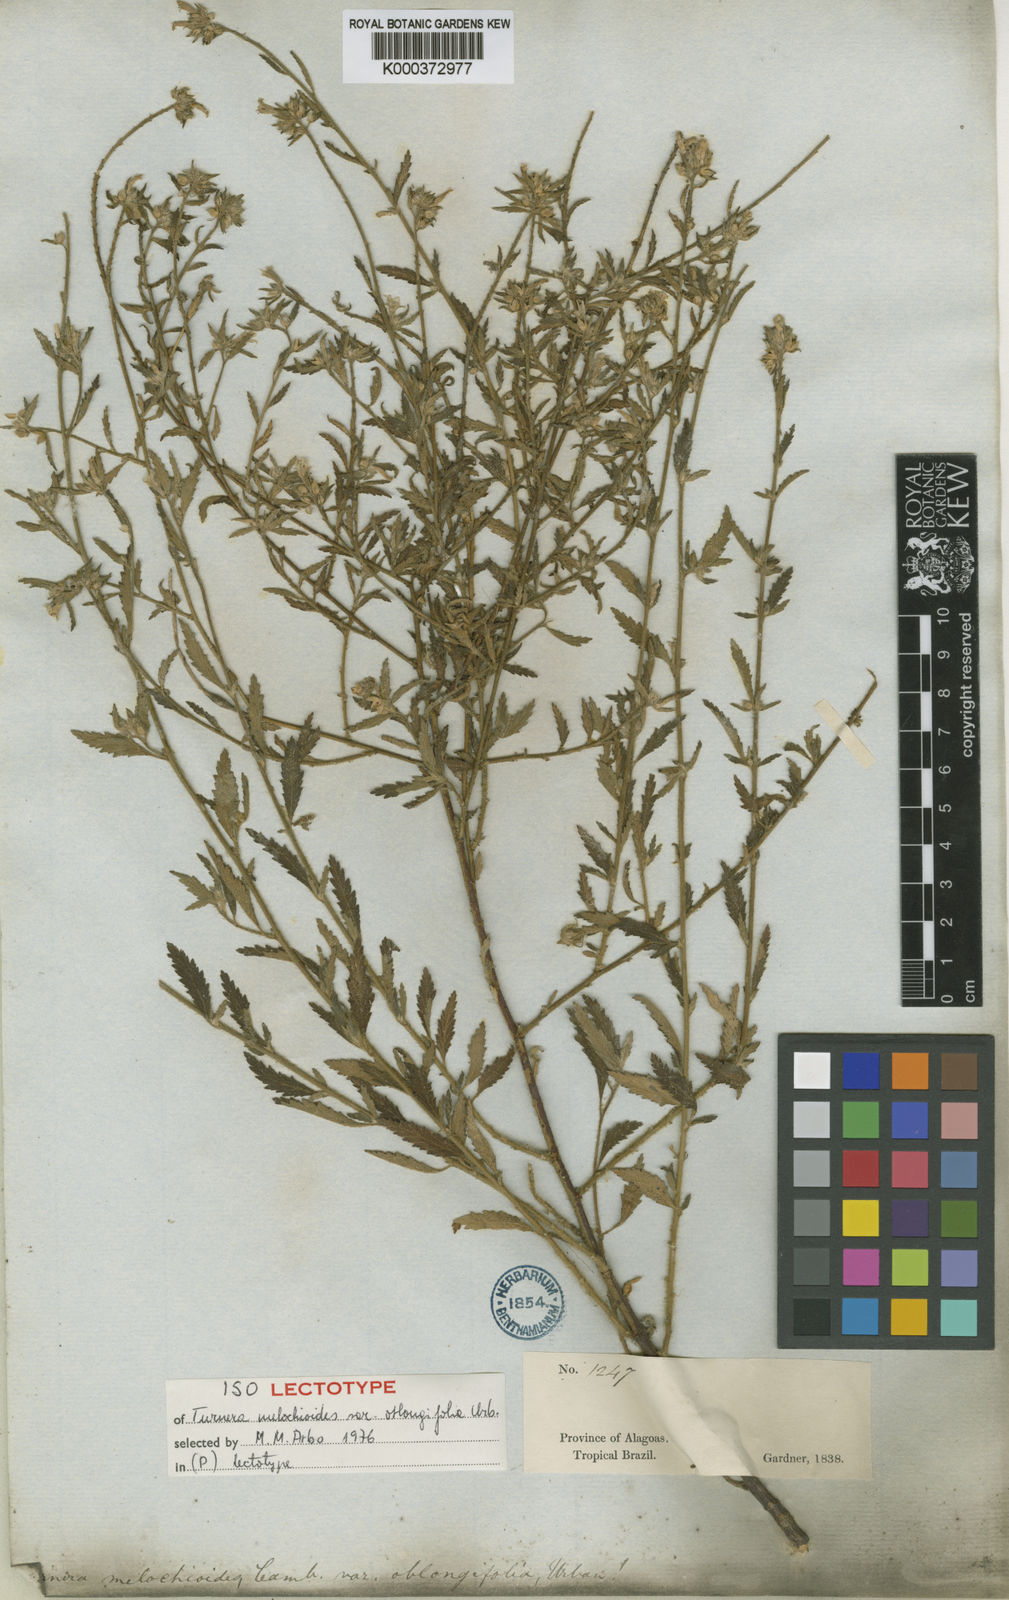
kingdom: Plantae
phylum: Tracheophyta
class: Magnoliopsida
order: Malpighiales
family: Turneraceae
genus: Turnera
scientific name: Turnera arenaria
